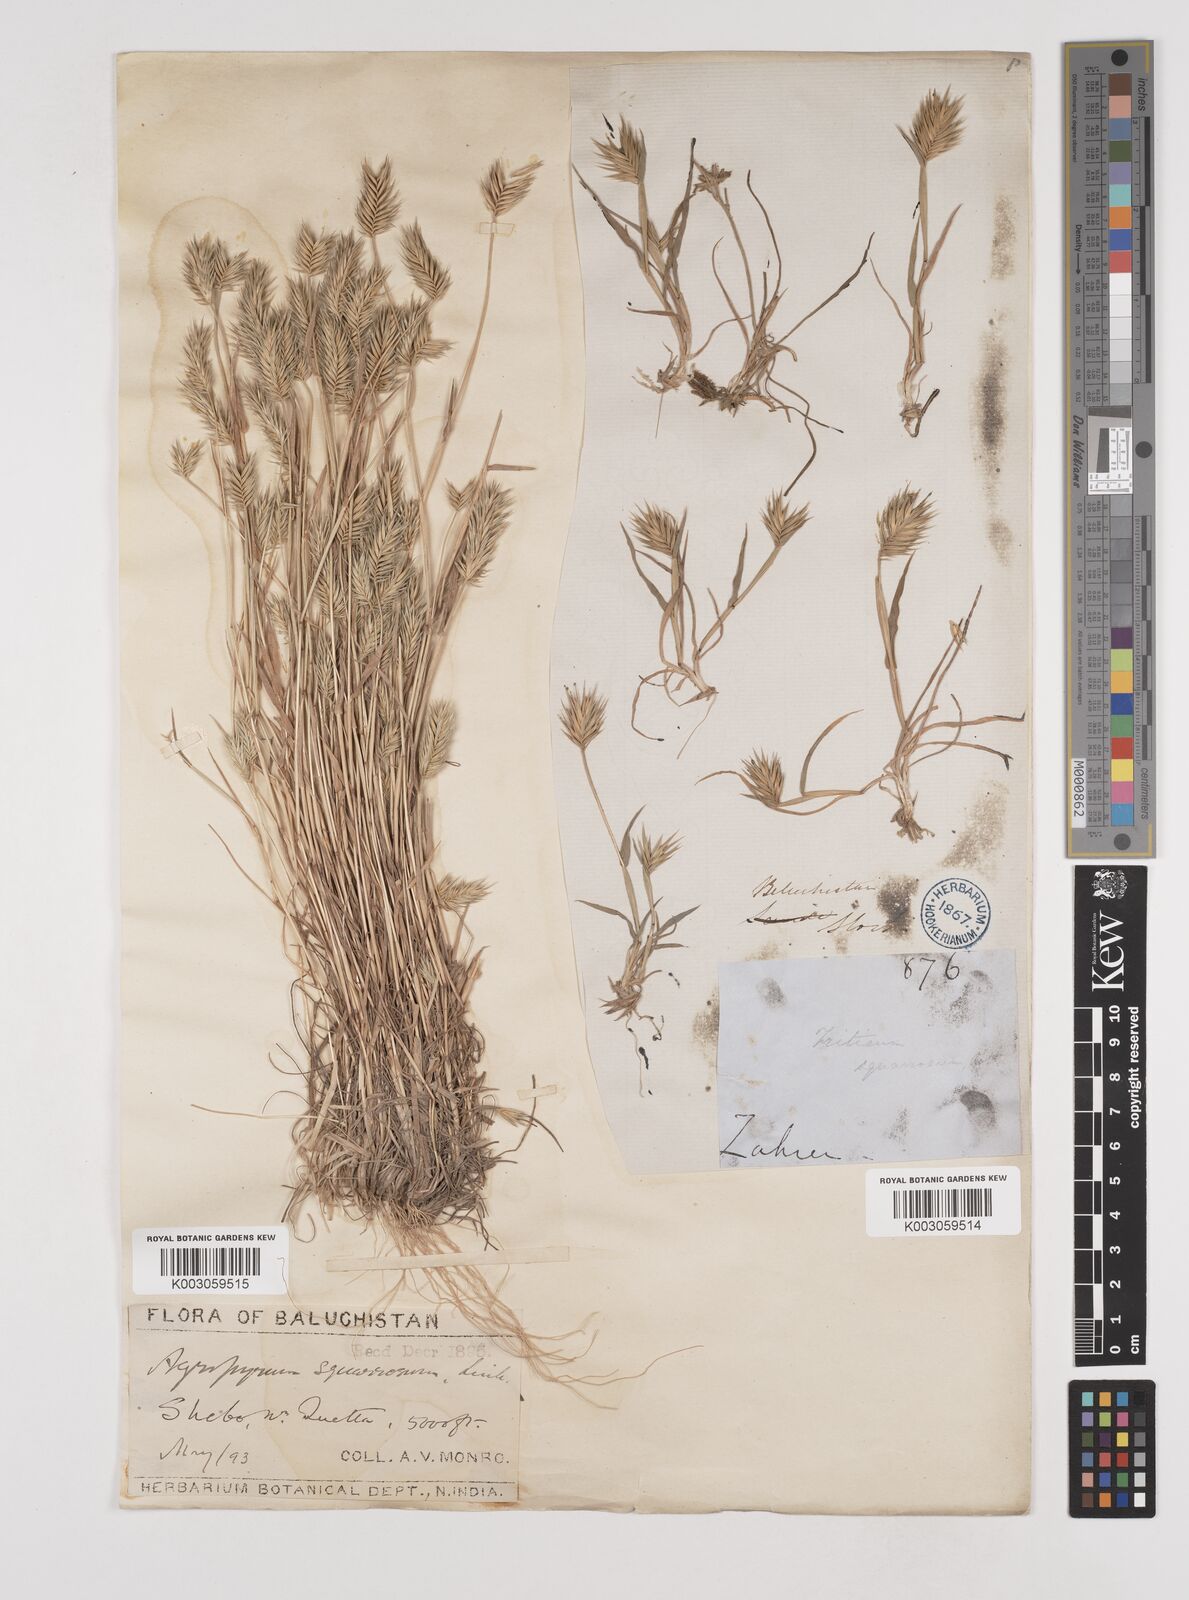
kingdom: Plantae
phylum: Tracheophyta
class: Liliopsida
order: Poales
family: Poaceae
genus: Eremopyrum
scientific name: Eremopyrum bonaepartis
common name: Tapertip false wheatgrass
